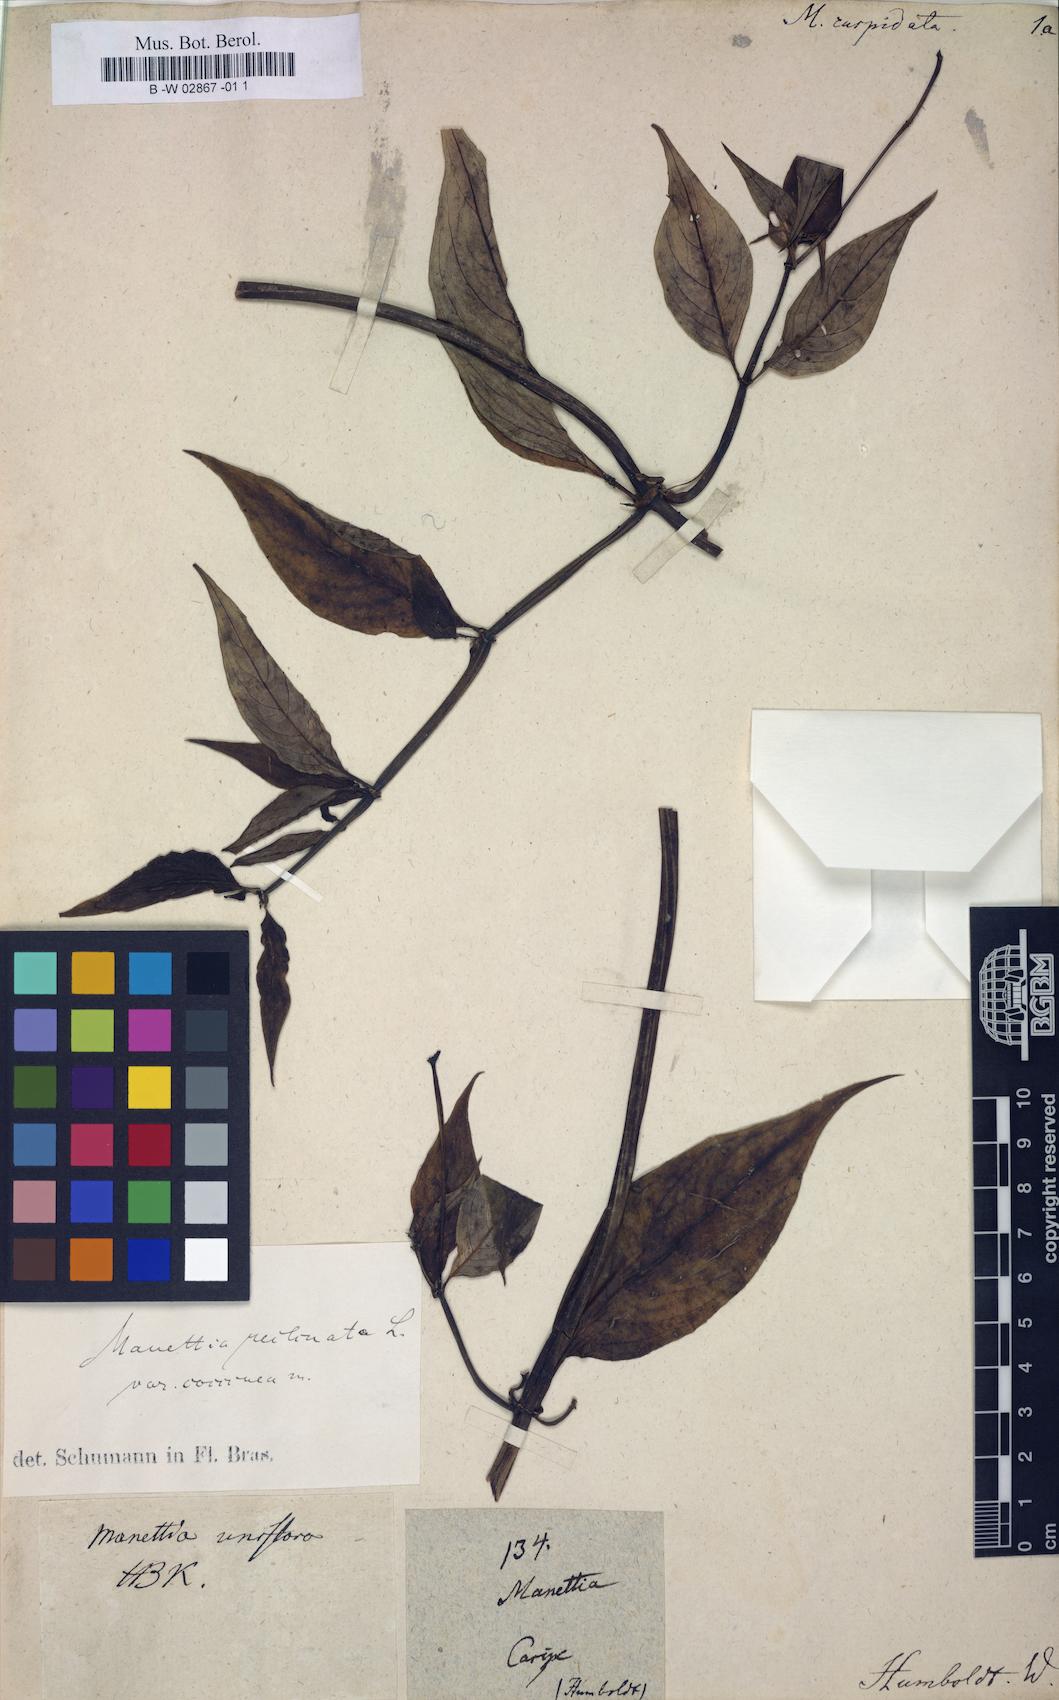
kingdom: Plantae
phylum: Tracheophyta
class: Magnoliopsida
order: Gentianales
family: Rubiaceae
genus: Manettia
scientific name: Manettia reclinata
